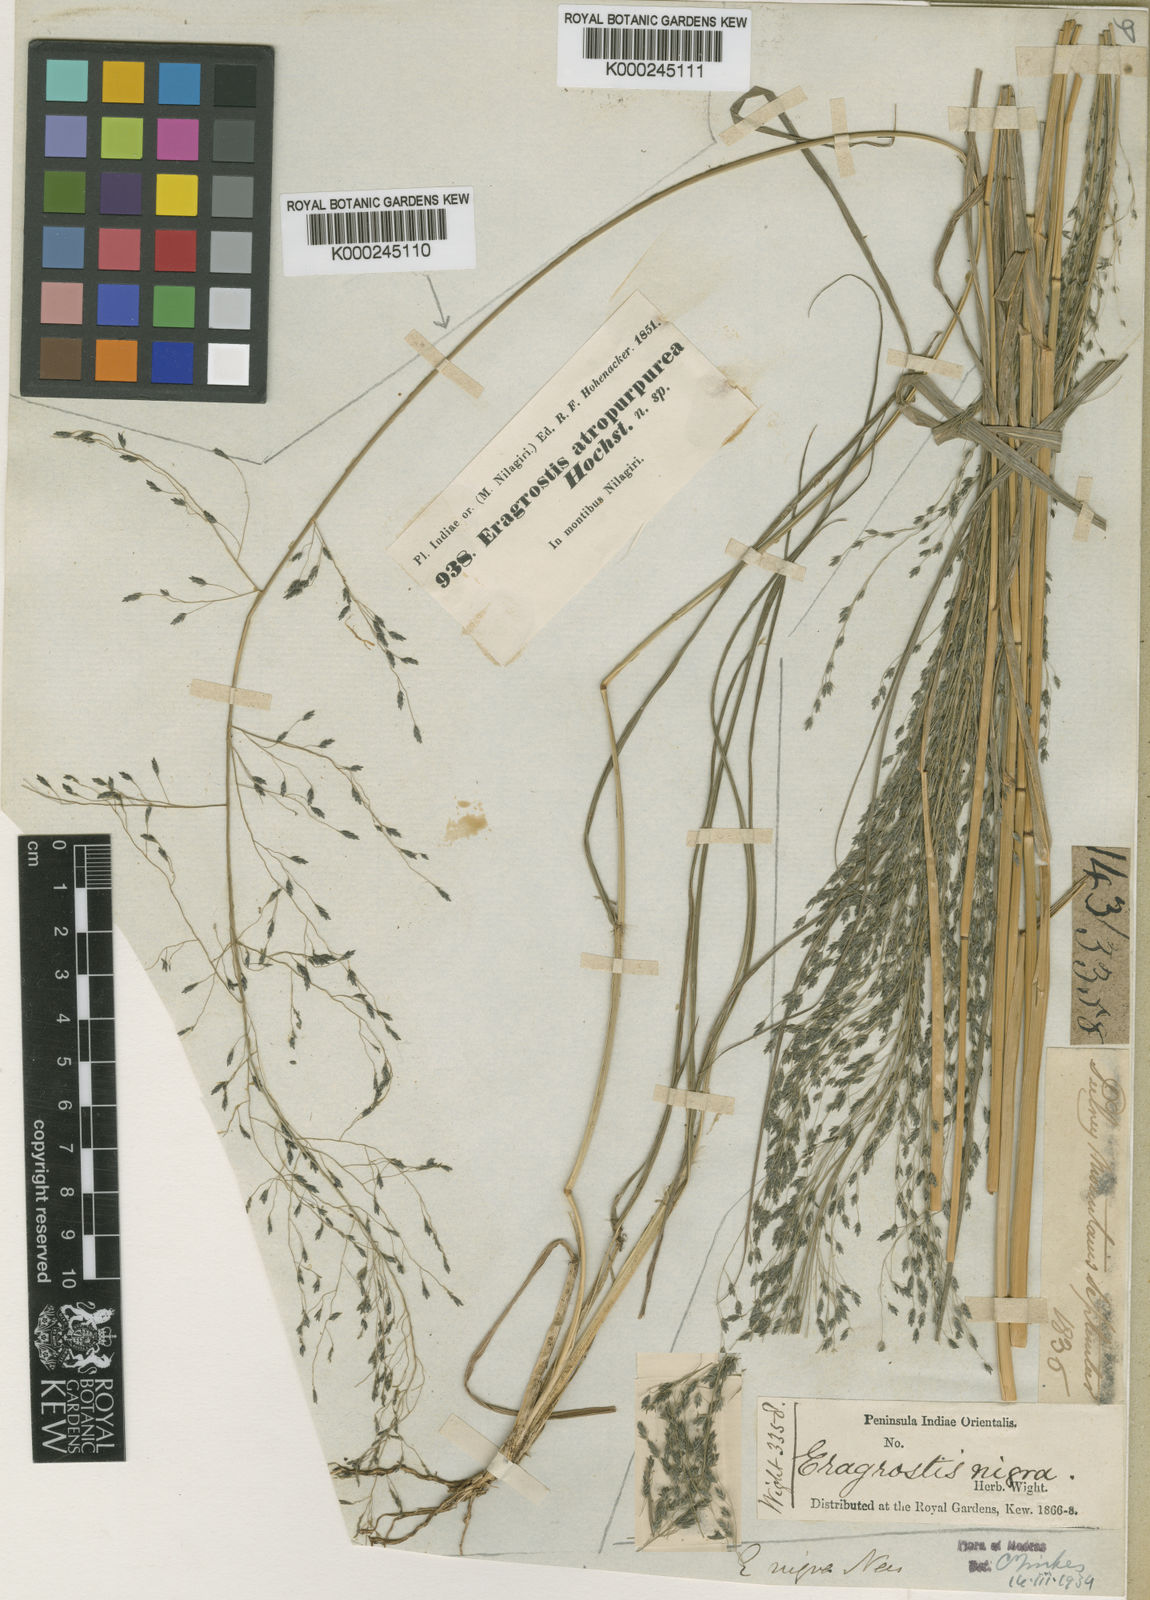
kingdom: Plantae
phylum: Tracheophyta
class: Liliopsida
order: Poales
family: Poaceae
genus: Eragrostis
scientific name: Eragrostis nigra
